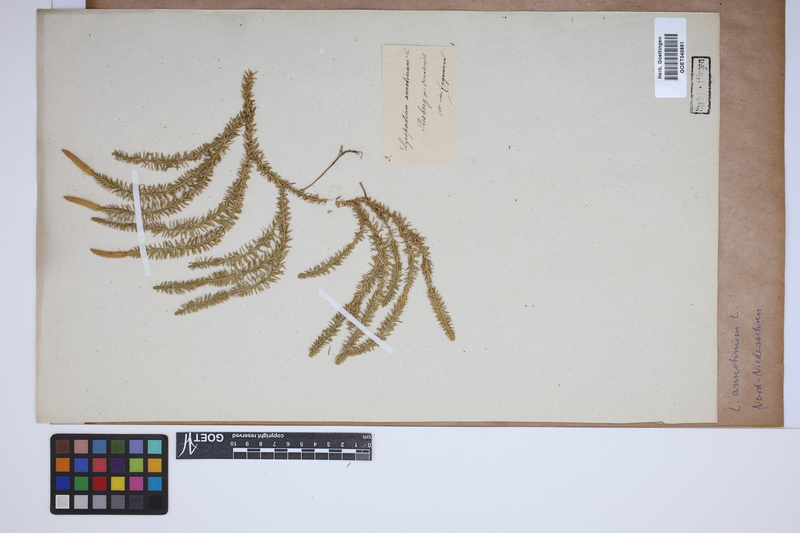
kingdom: Plantae
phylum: Tracheophyta
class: Lycopodiopsida
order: Lycopodiales
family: Lycopodiaceae
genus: Spinulum
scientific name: Spinulum annotinum
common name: Interrupted club-moss
